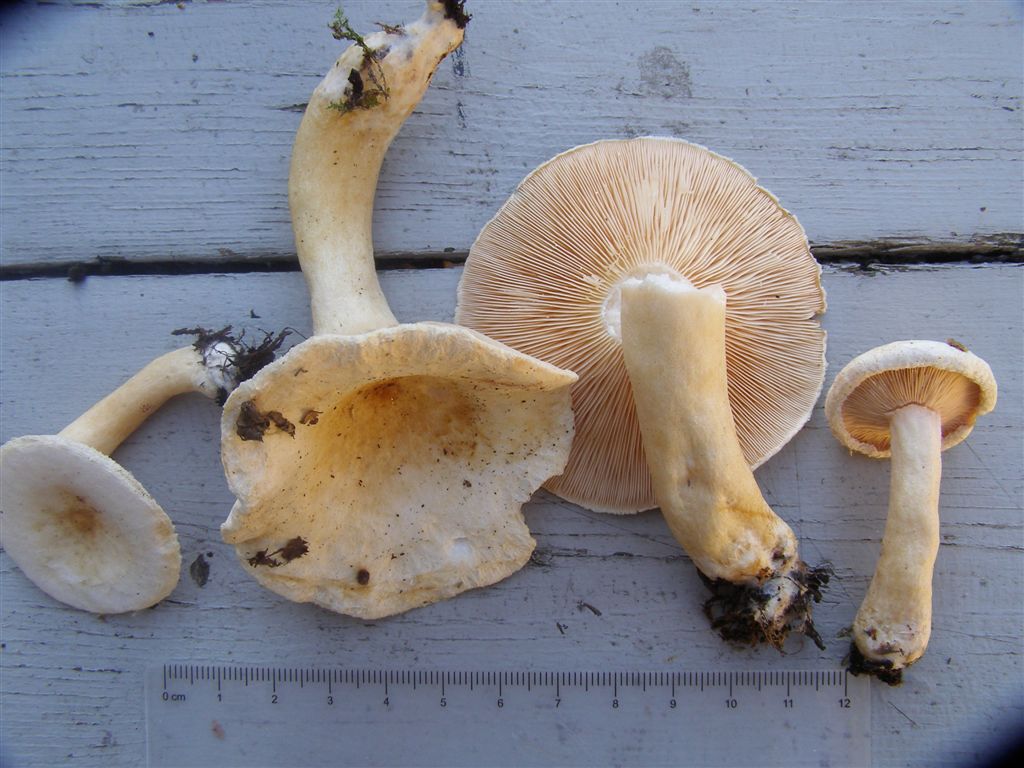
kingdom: Fungi
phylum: Basidiomycota
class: Agaricomycetes
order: Russulales
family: Russulaceae
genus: Lactarius
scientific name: Lactarius scoticus
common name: tørve-mælkehat
